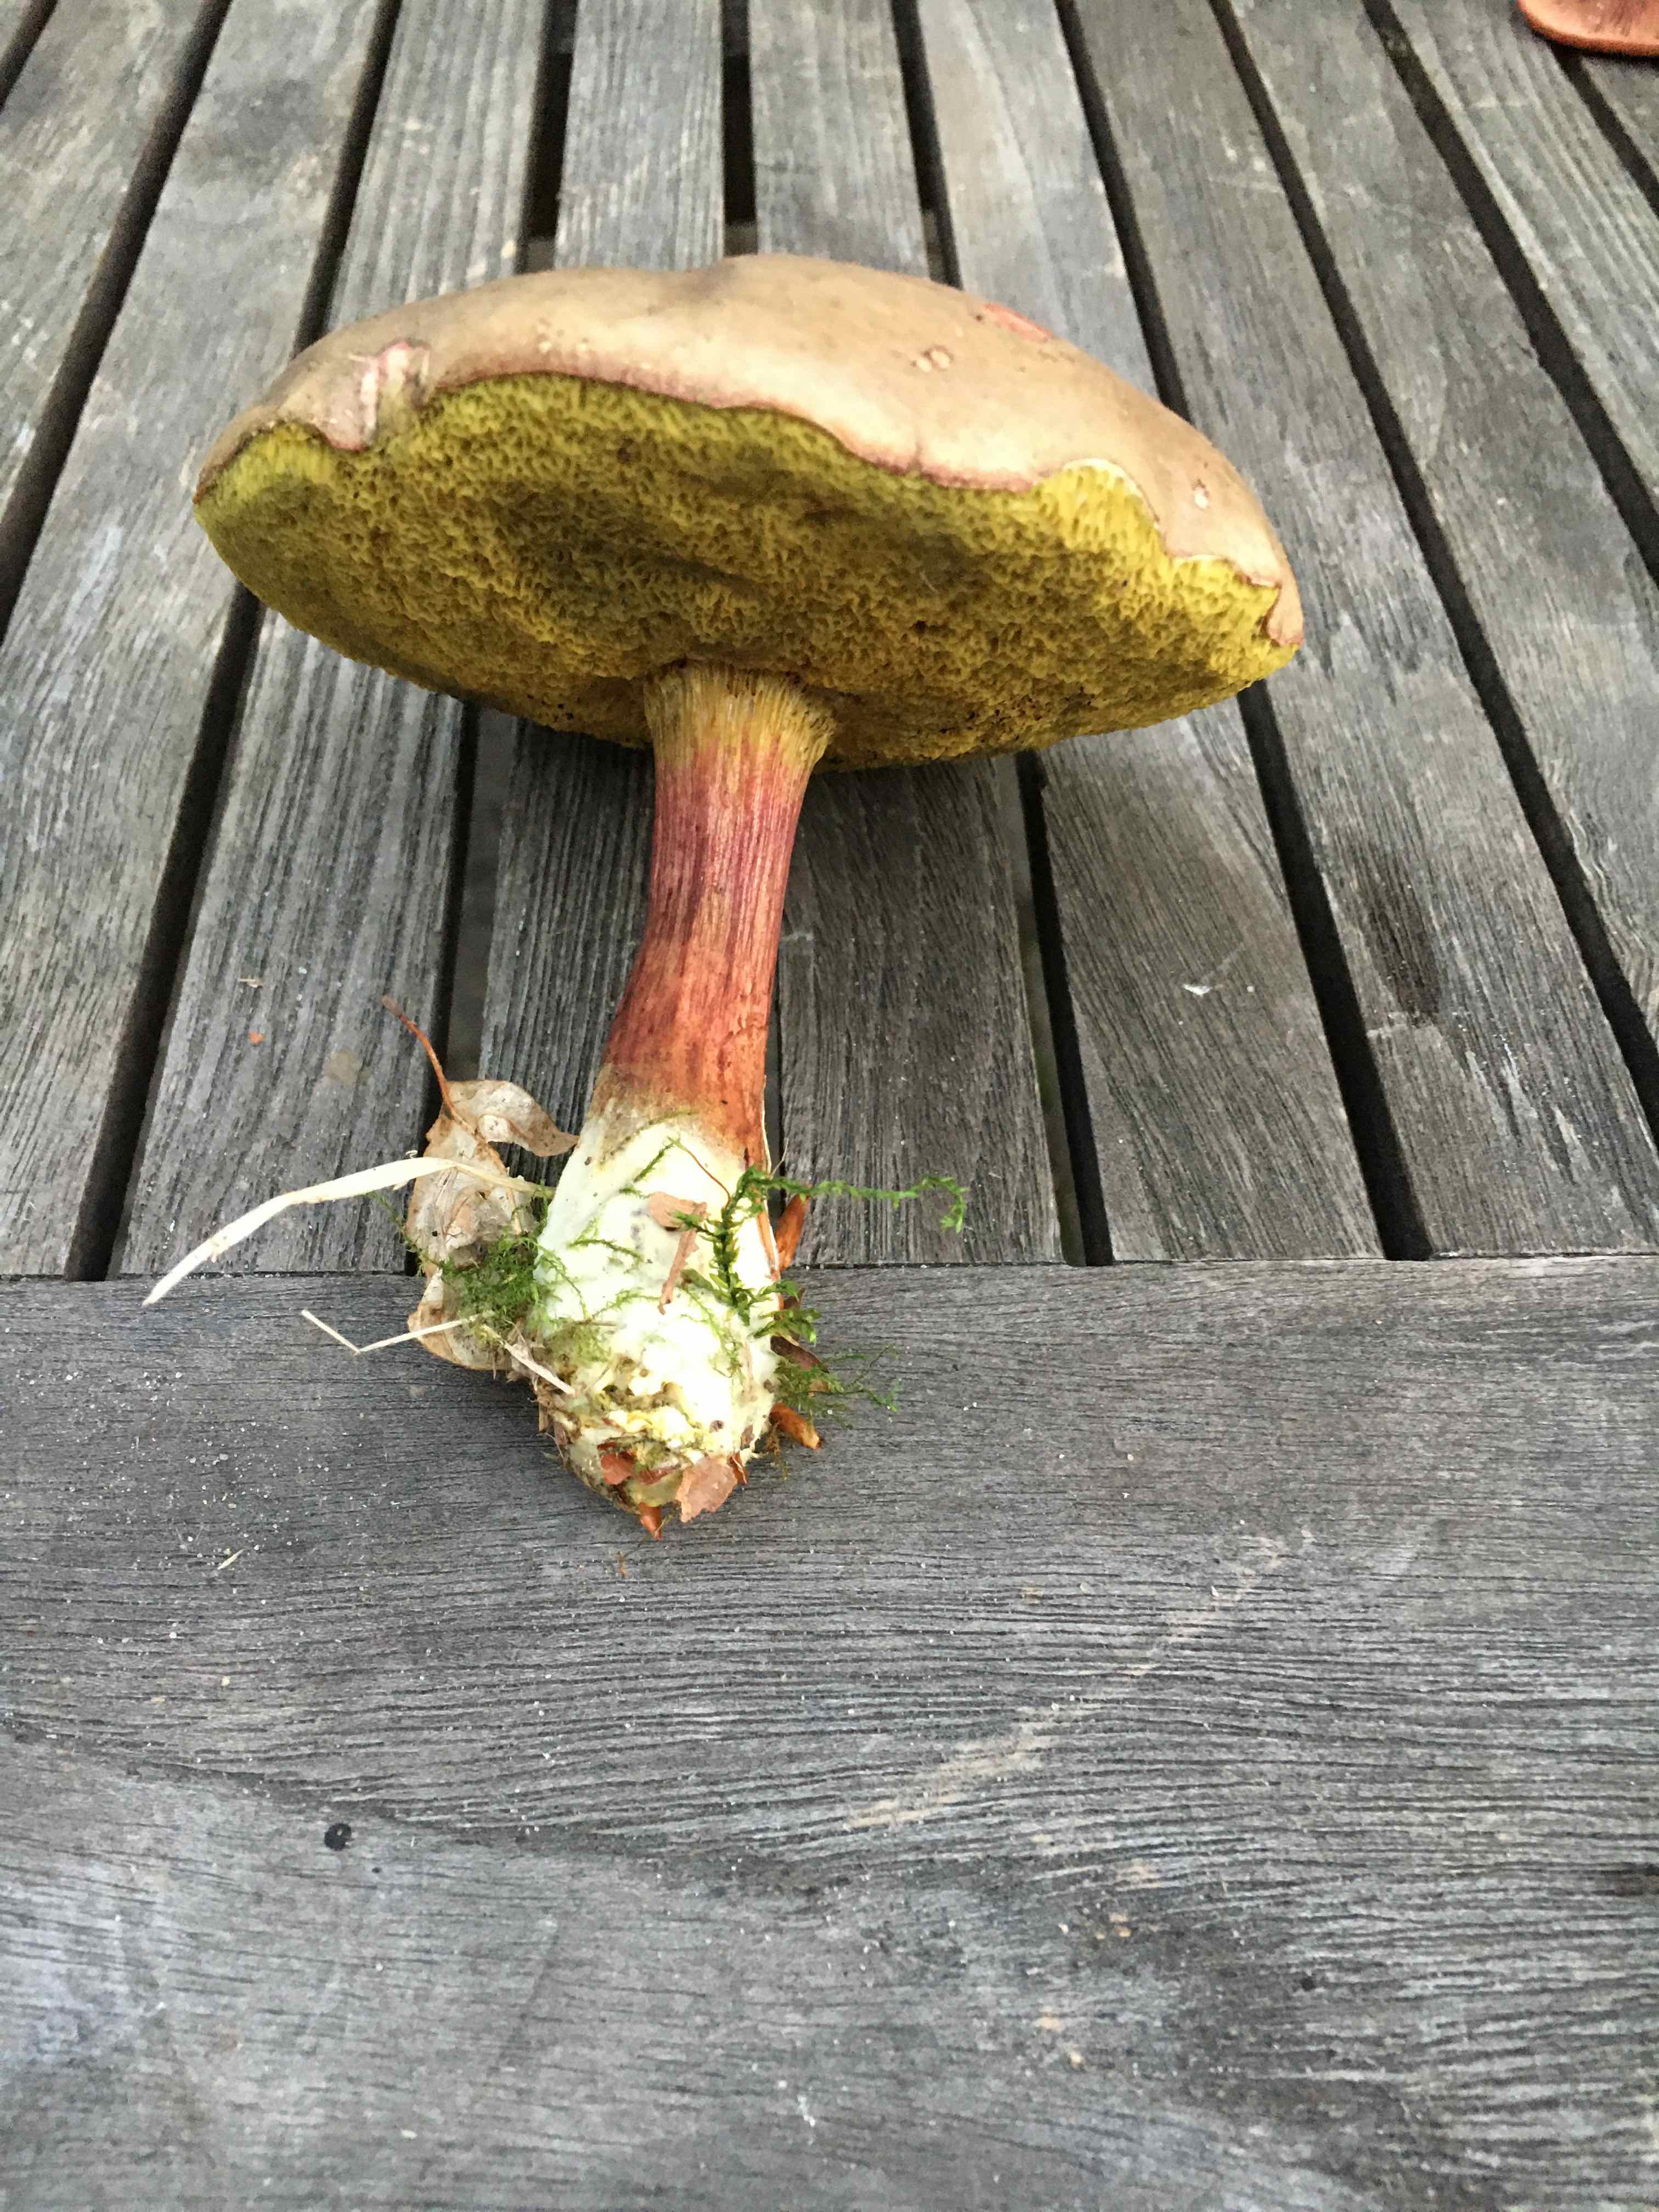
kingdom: Fungi
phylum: Basidiomycota
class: Agaricomycetes
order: Boletales
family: Boletaceae
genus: Xerocomellus
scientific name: Xerocomellus
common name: dværgrørhat
